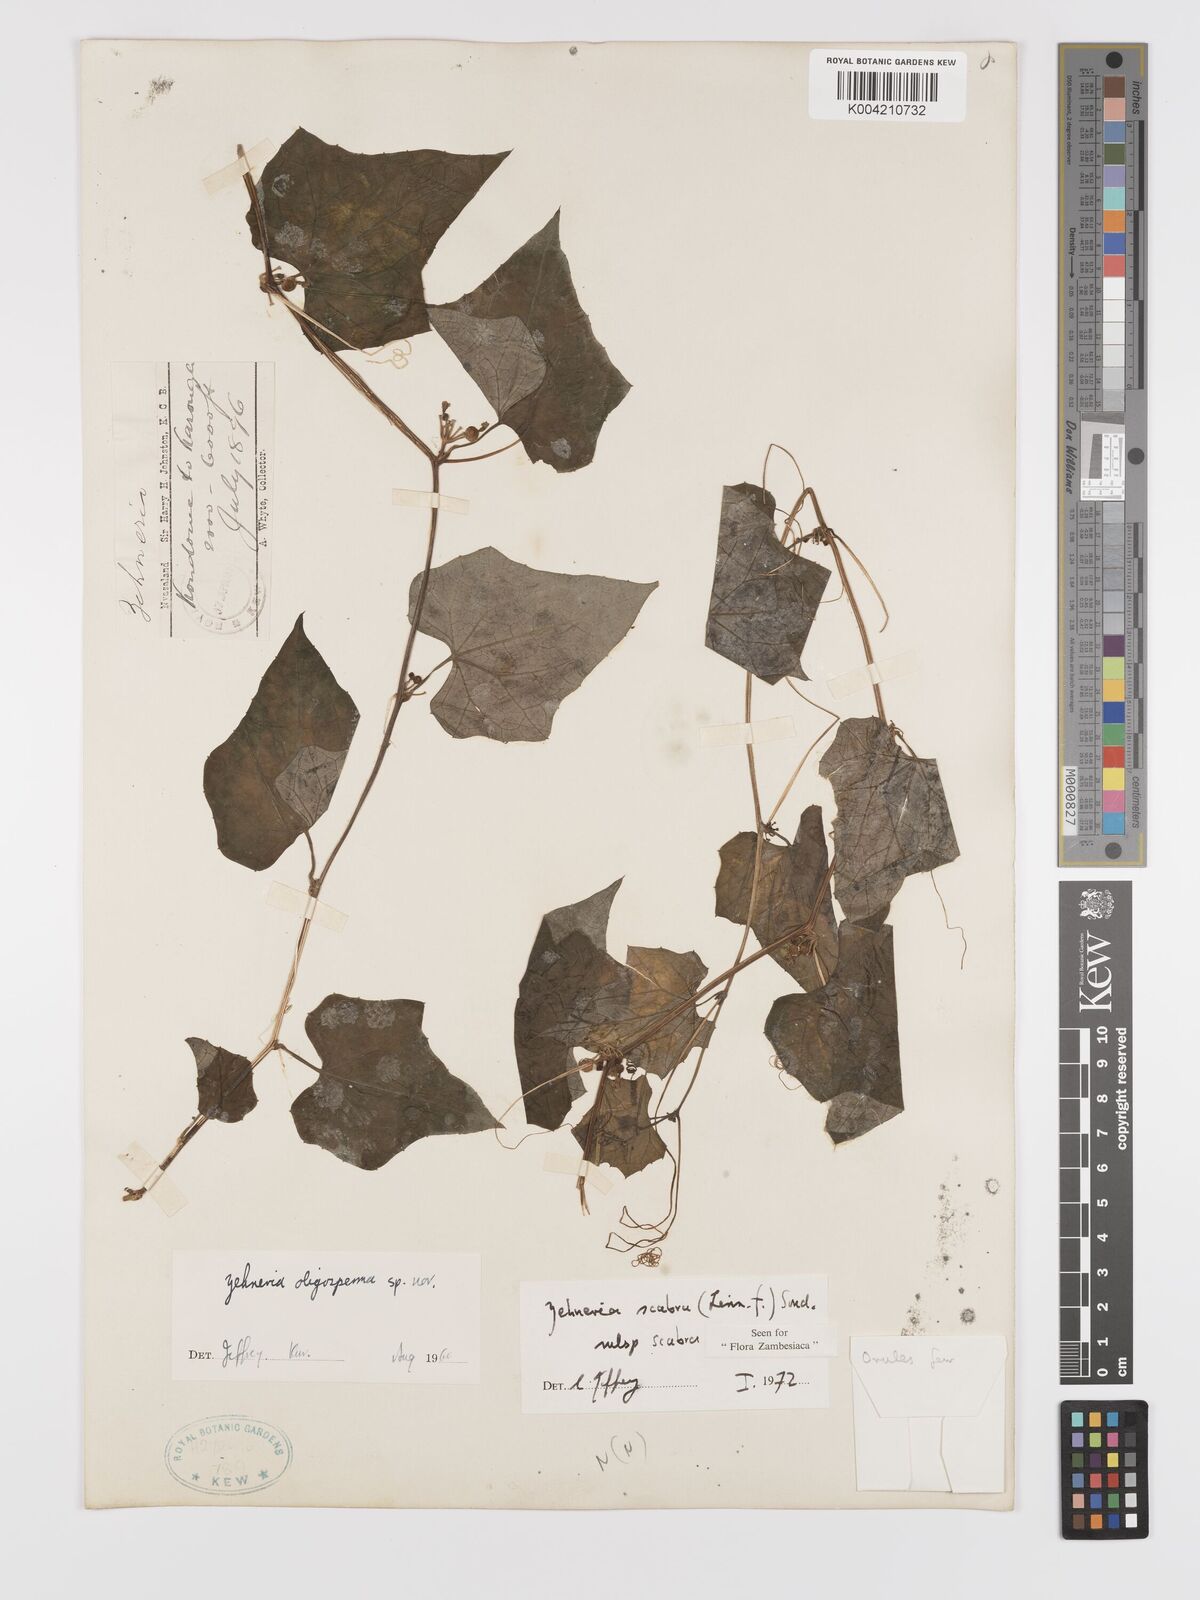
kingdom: Plantae
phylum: Tracheophyta
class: Magnoliopsida
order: Cucurbitales
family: Cucurbitaceae
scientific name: Cucurbitaceae
